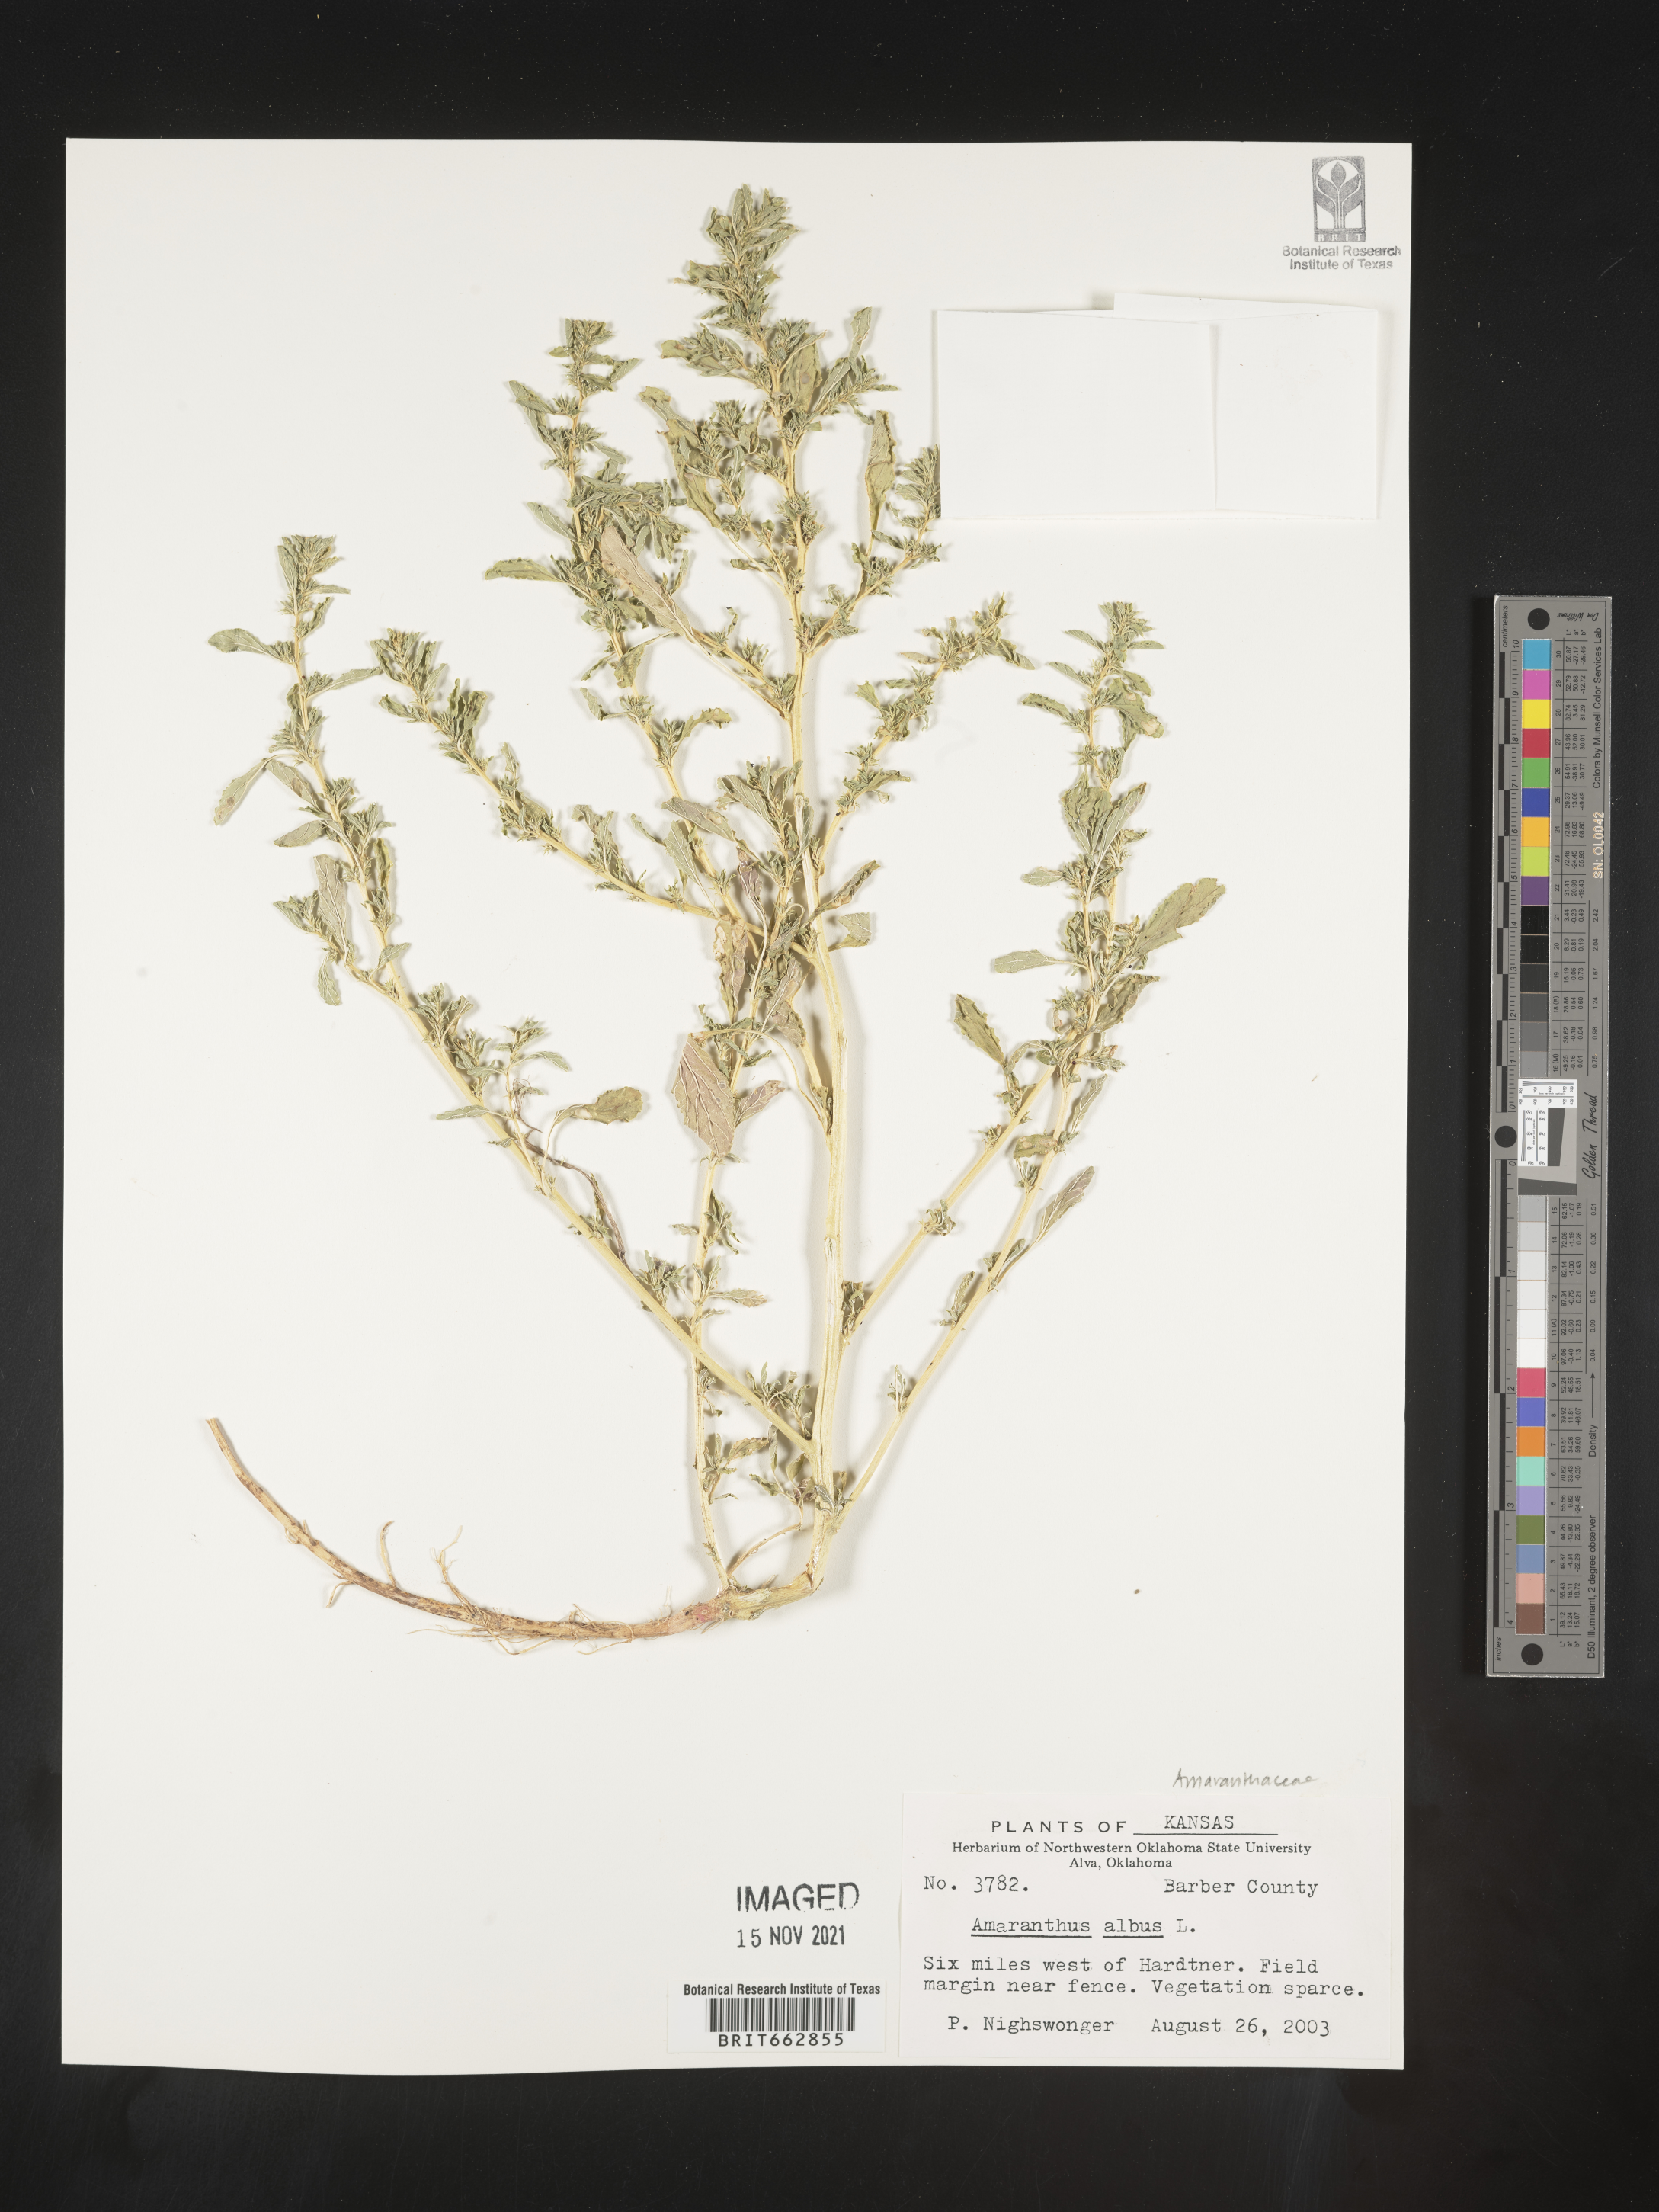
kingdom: Plantae
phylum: Tracheophyta
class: Magnoliopsida
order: Caryophyllales
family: Amaranthaceae
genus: Amaranthus
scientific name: Amaranthus albus
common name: White pigweed
